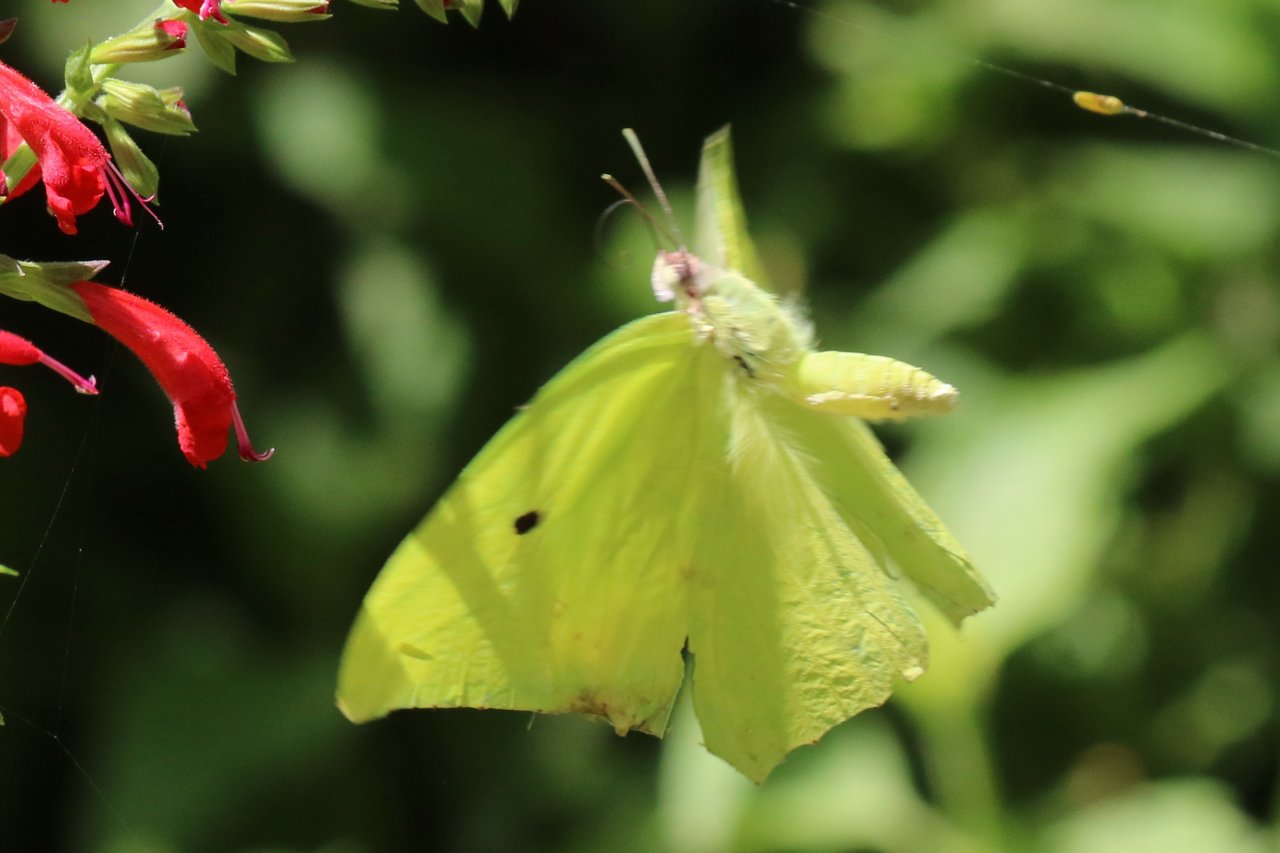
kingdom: Animalia
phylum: Arthropoda
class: Insecta
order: Lepidoptera
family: Pieridae
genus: Anteos
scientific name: Anteos maerula
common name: Yellow Angled-Sulphur
